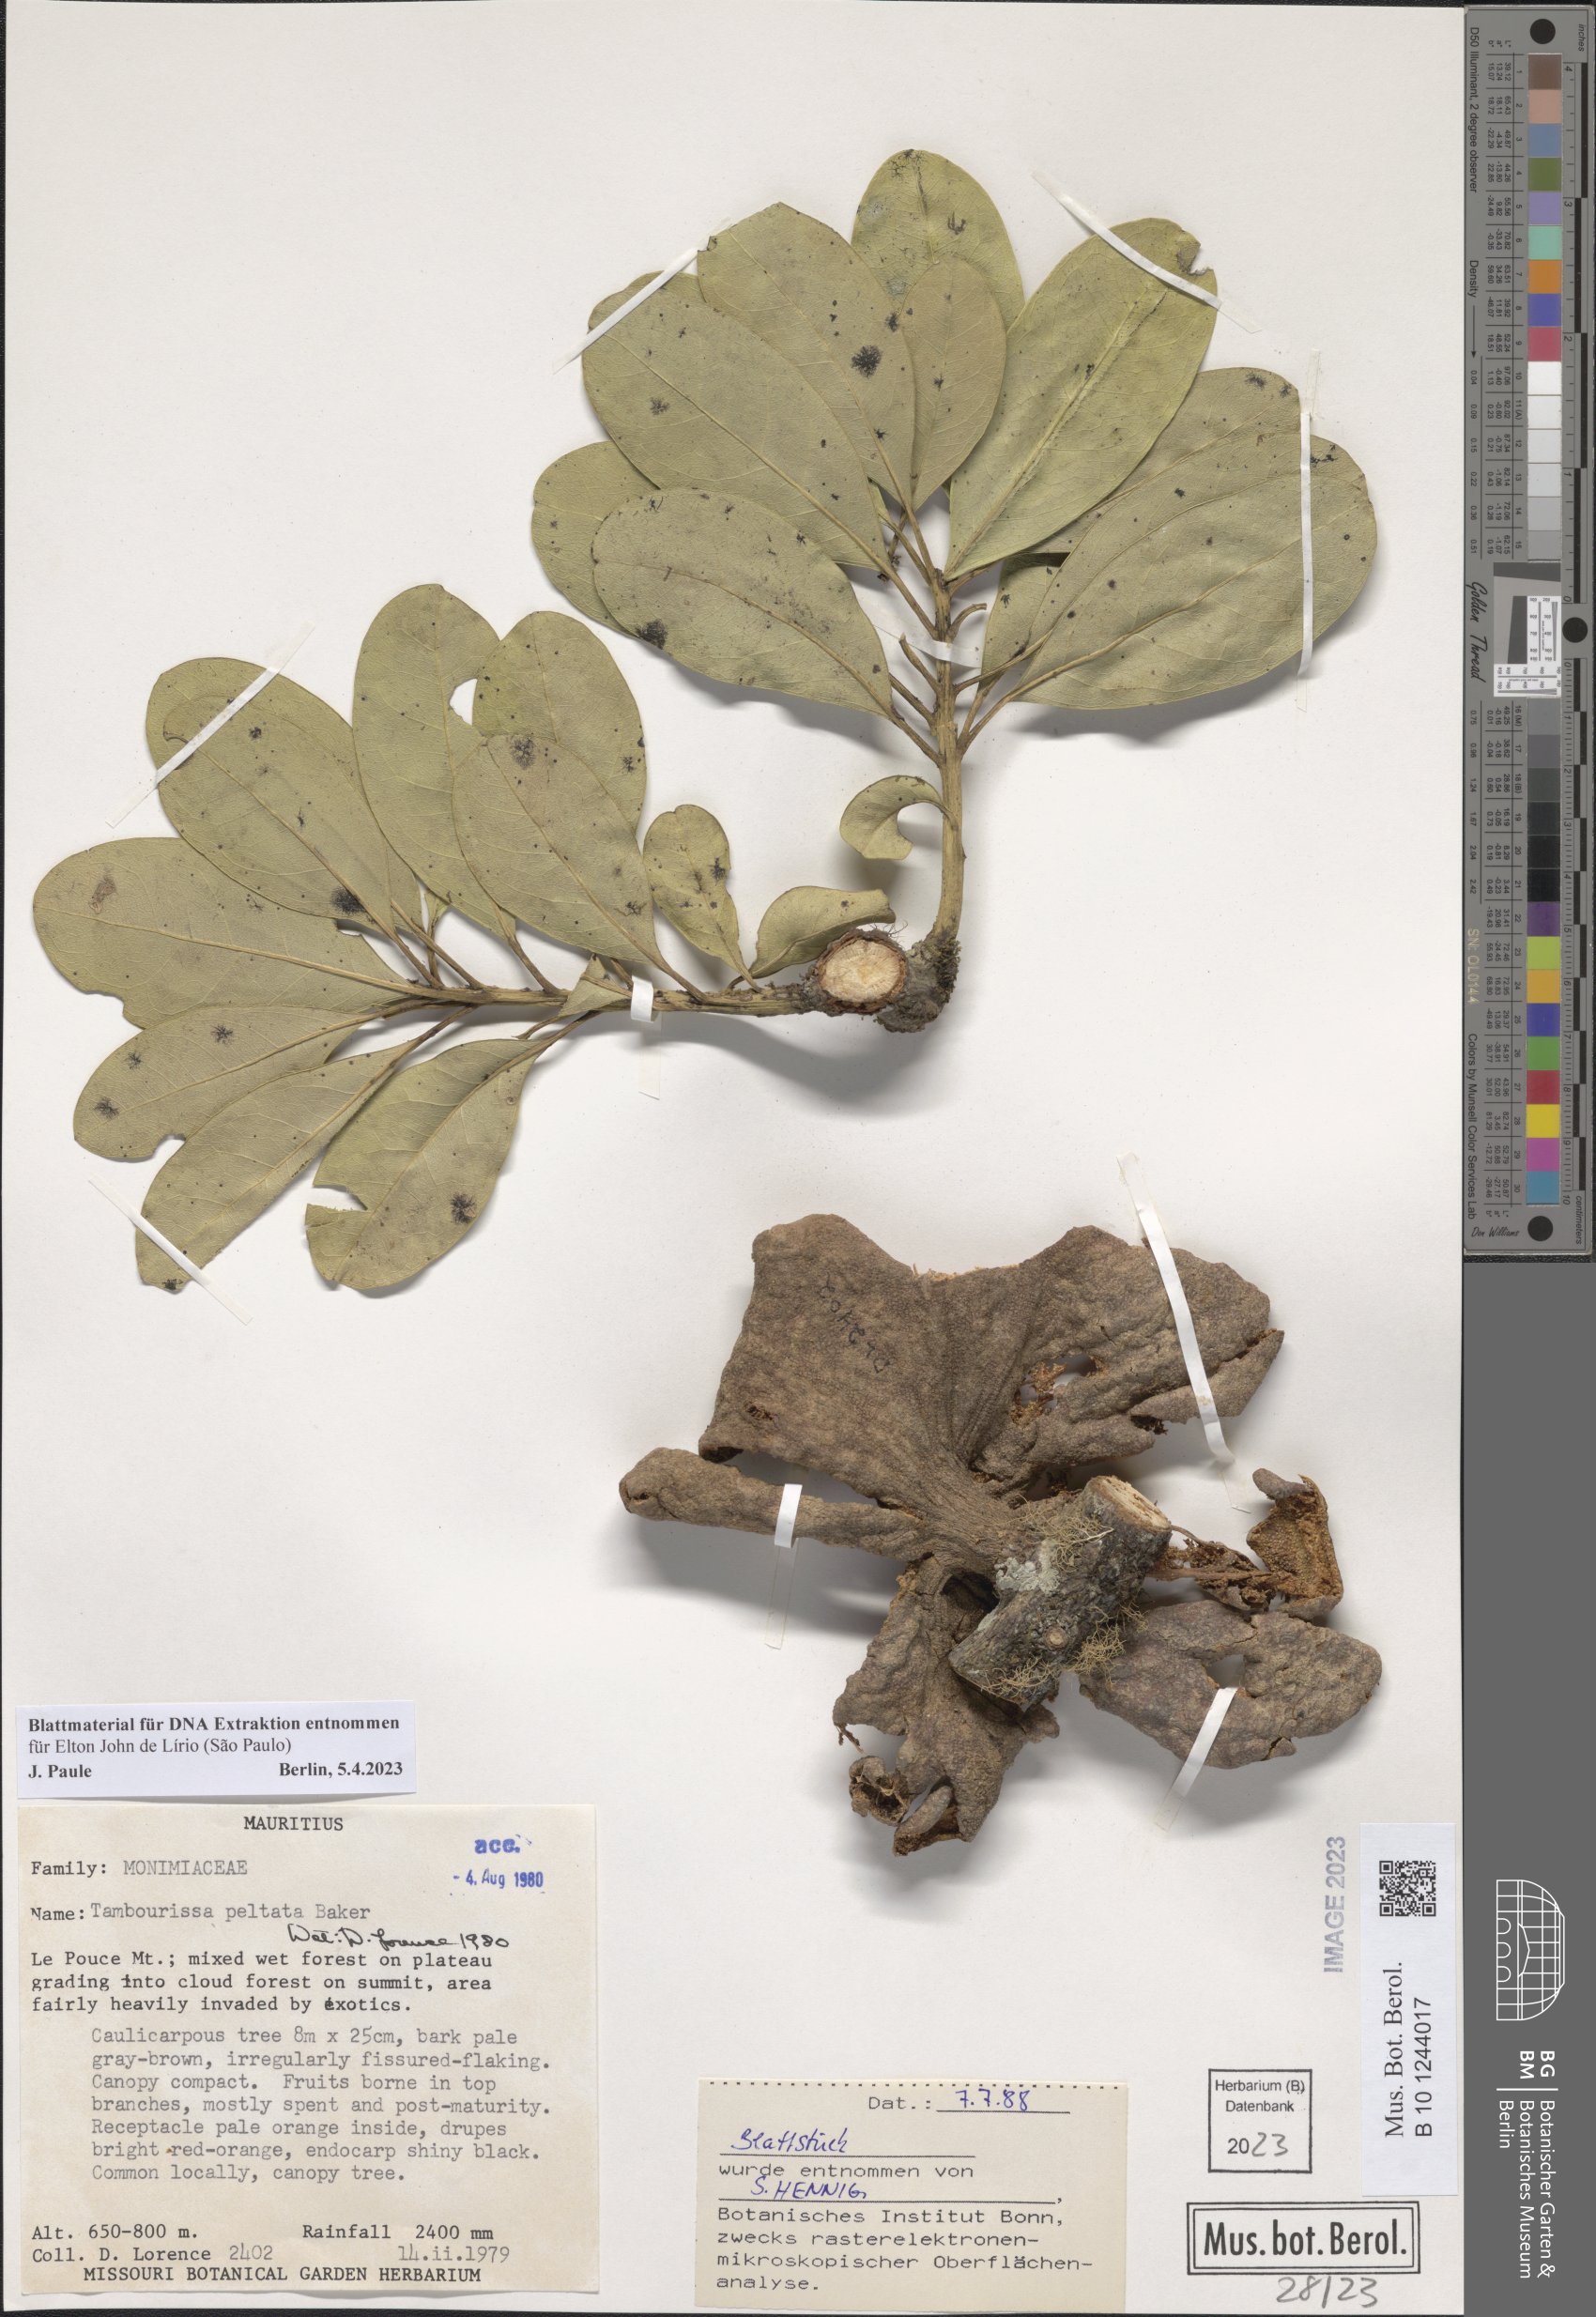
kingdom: Plantae
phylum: Tracheophyta
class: Magnoliopsida
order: Laurales
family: Monimiaceae
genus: Tambourissa
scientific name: Tambourissa peltata
